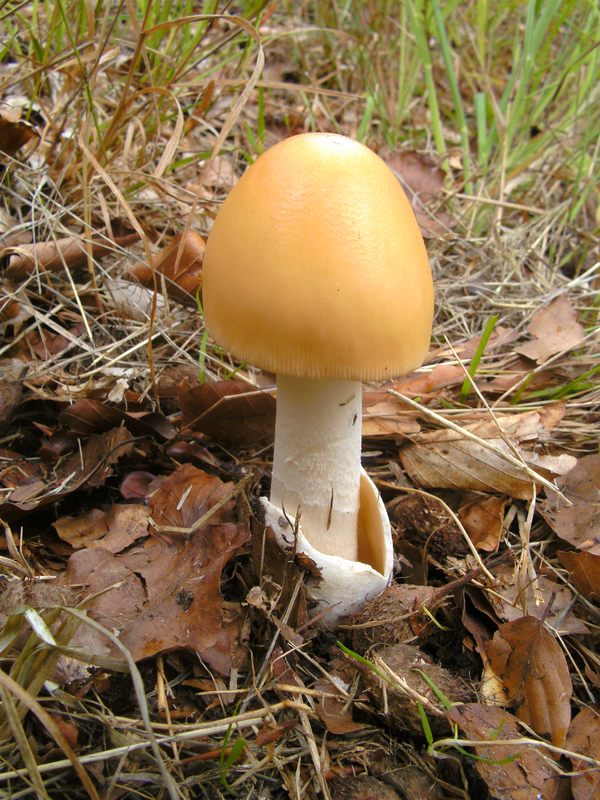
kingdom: Fungi
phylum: Basidiomycota
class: Agaricomycetes
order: Agaricales
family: Amanitaceae
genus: Amanita
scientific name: Amanita subnudipes
